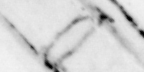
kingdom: Animalia
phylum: Chordata
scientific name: Chordata
